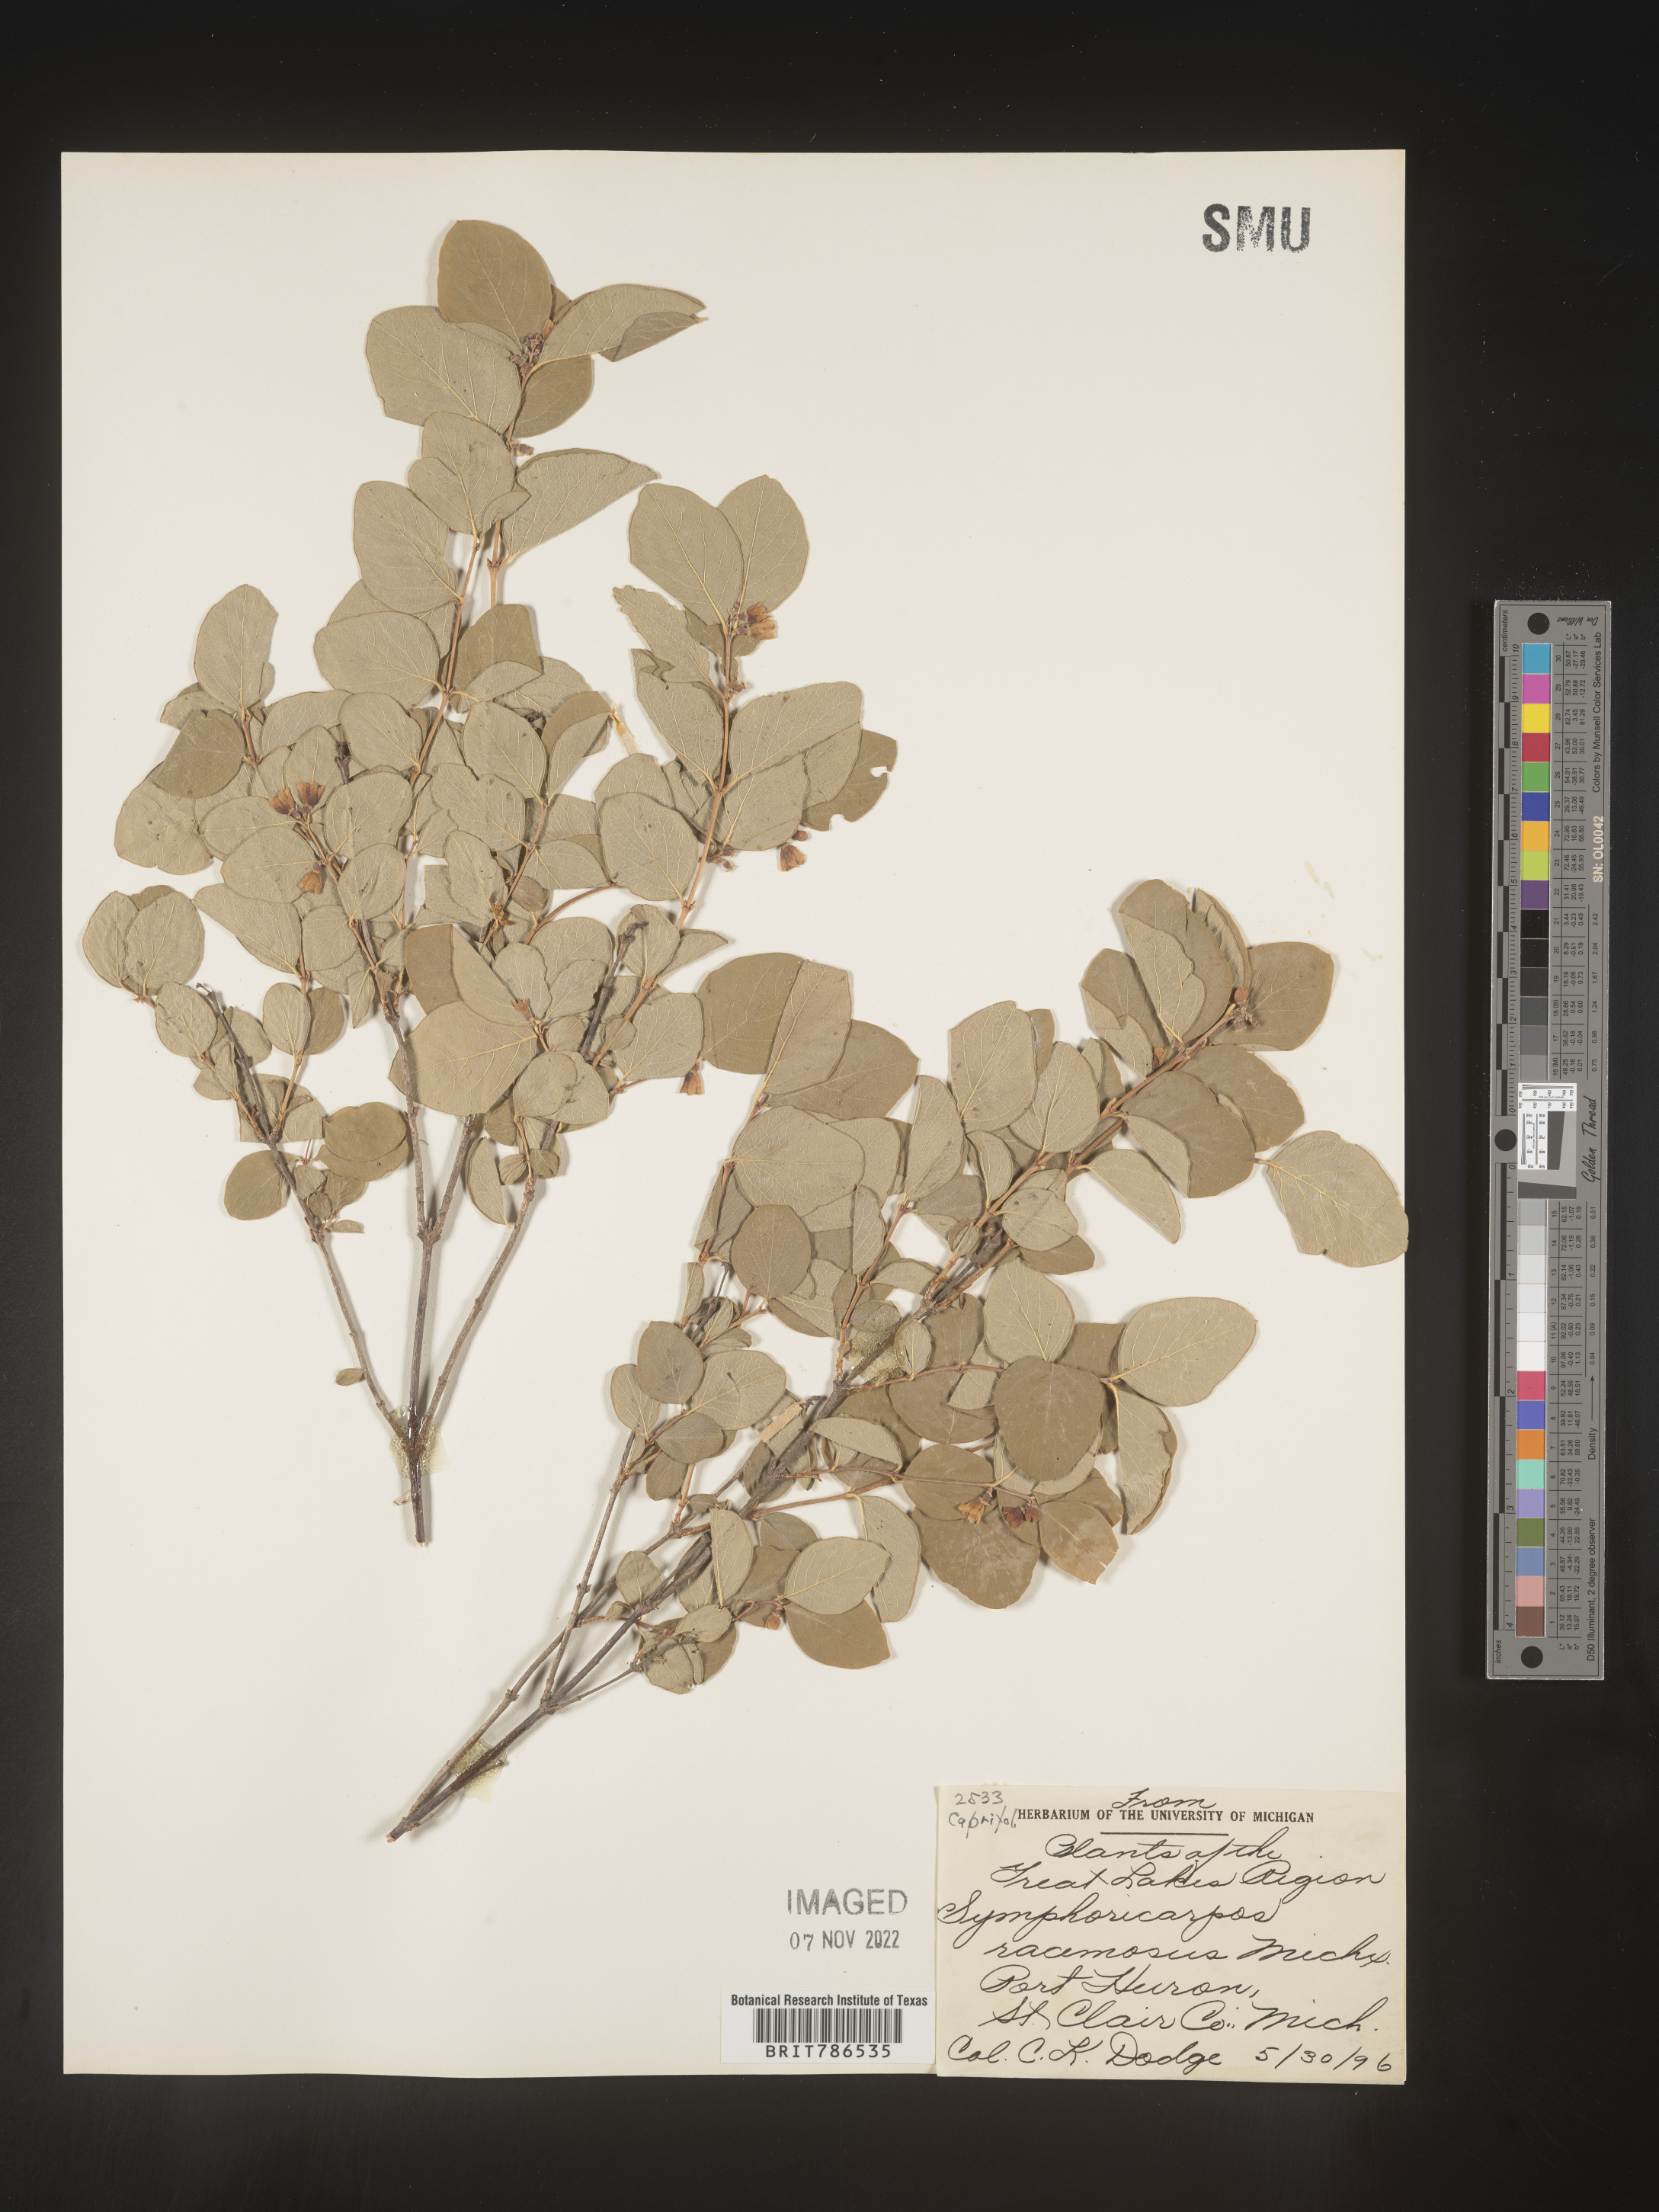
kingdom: Plantae
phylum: Tracheophyta
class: Magnoliopsida
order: Dipsacales
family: Caprifoliaceae
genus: Symphoricarpos
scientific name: Symphoricarpos
